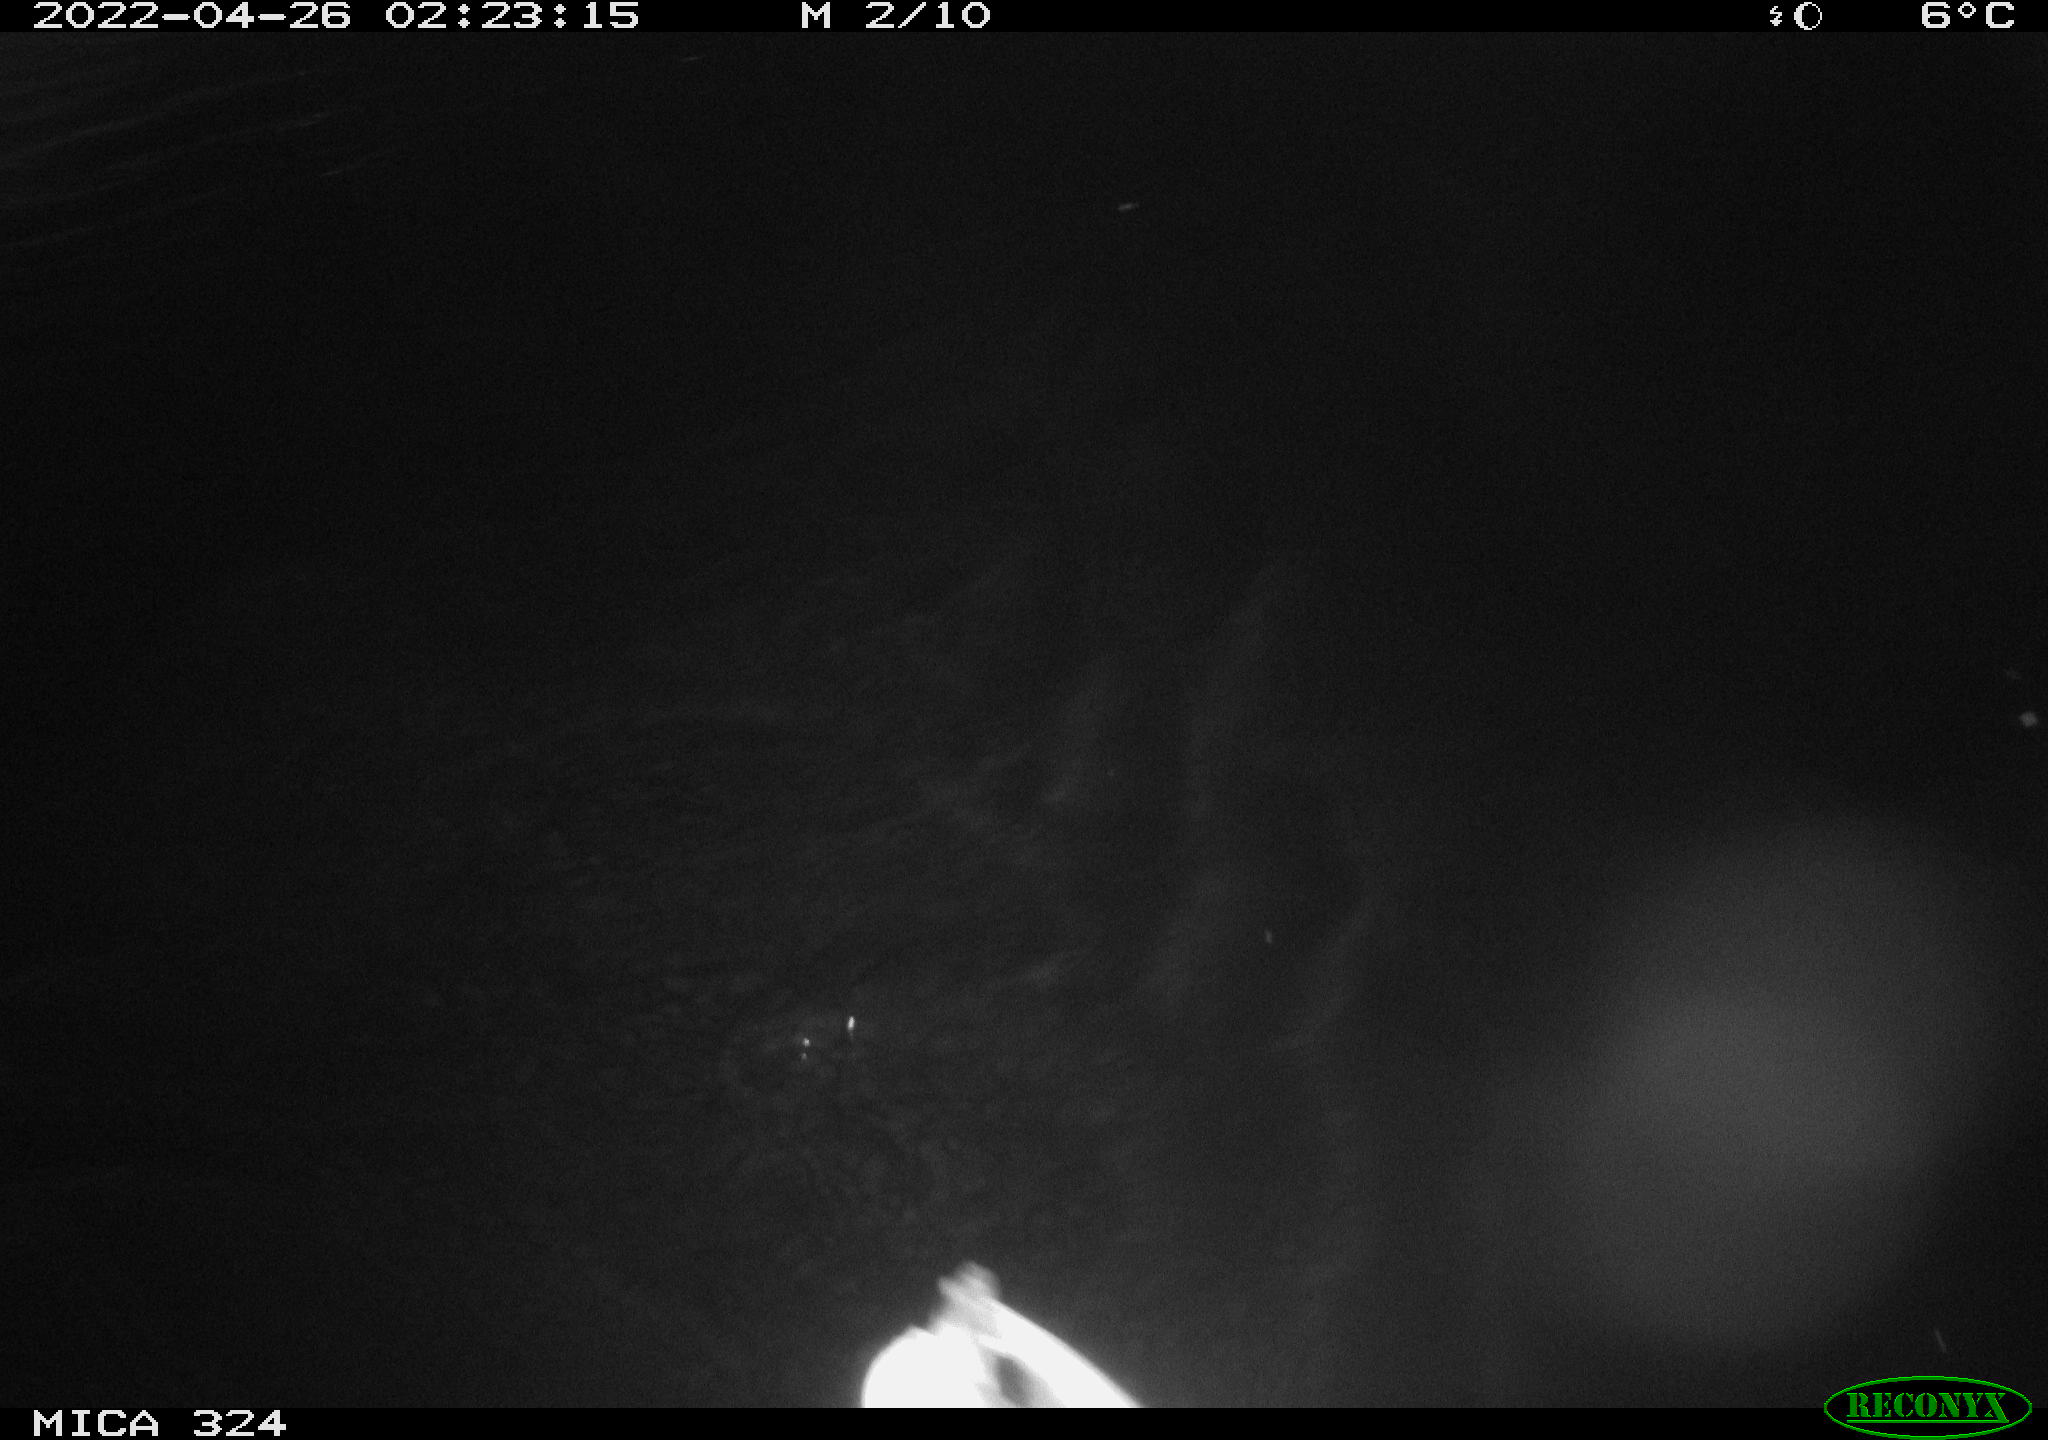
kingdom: Animalia
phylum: Chordata
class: Aves
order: Anseriformes
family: Anatidae
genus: Anas
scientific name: Anas platyrhynchos
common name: Mallard
